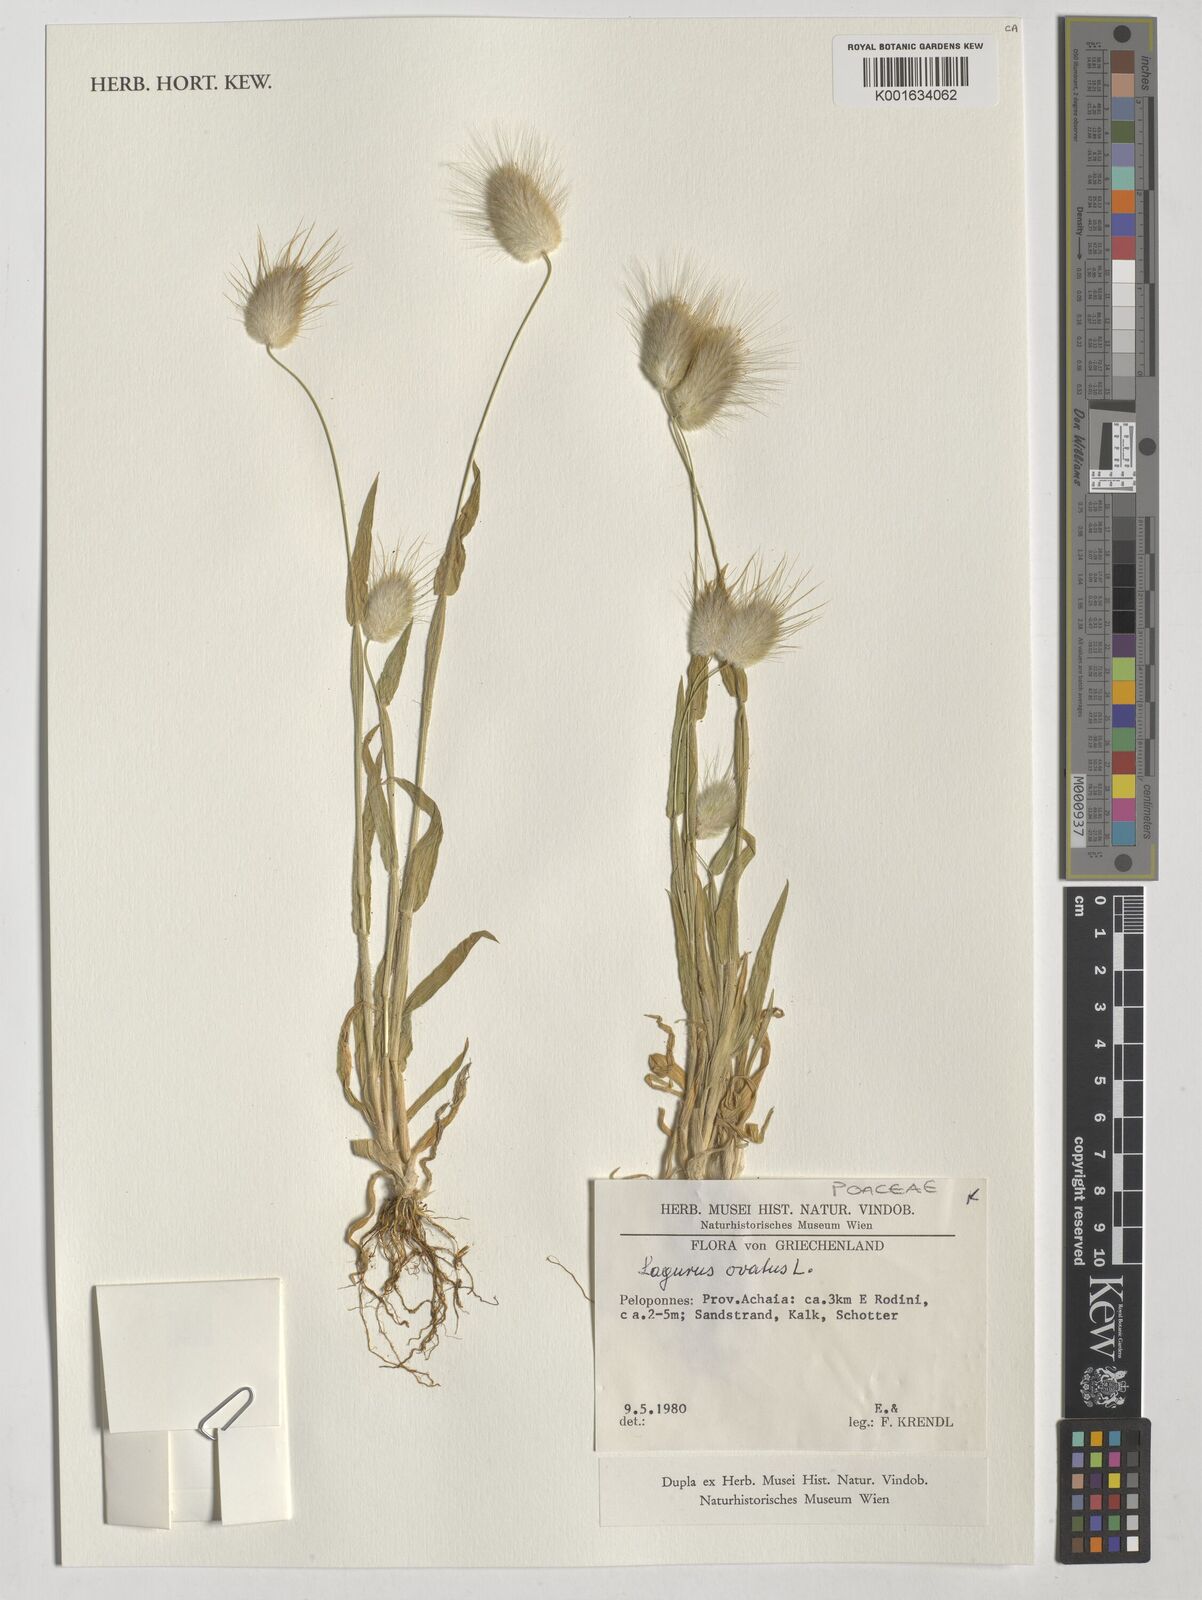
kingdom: Plantae
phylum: Tracheophyta
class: Liliopsida
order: Poales
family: Poaceae
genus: Lagurus
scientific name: Lagurus ovatus
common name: Hare's-tail
